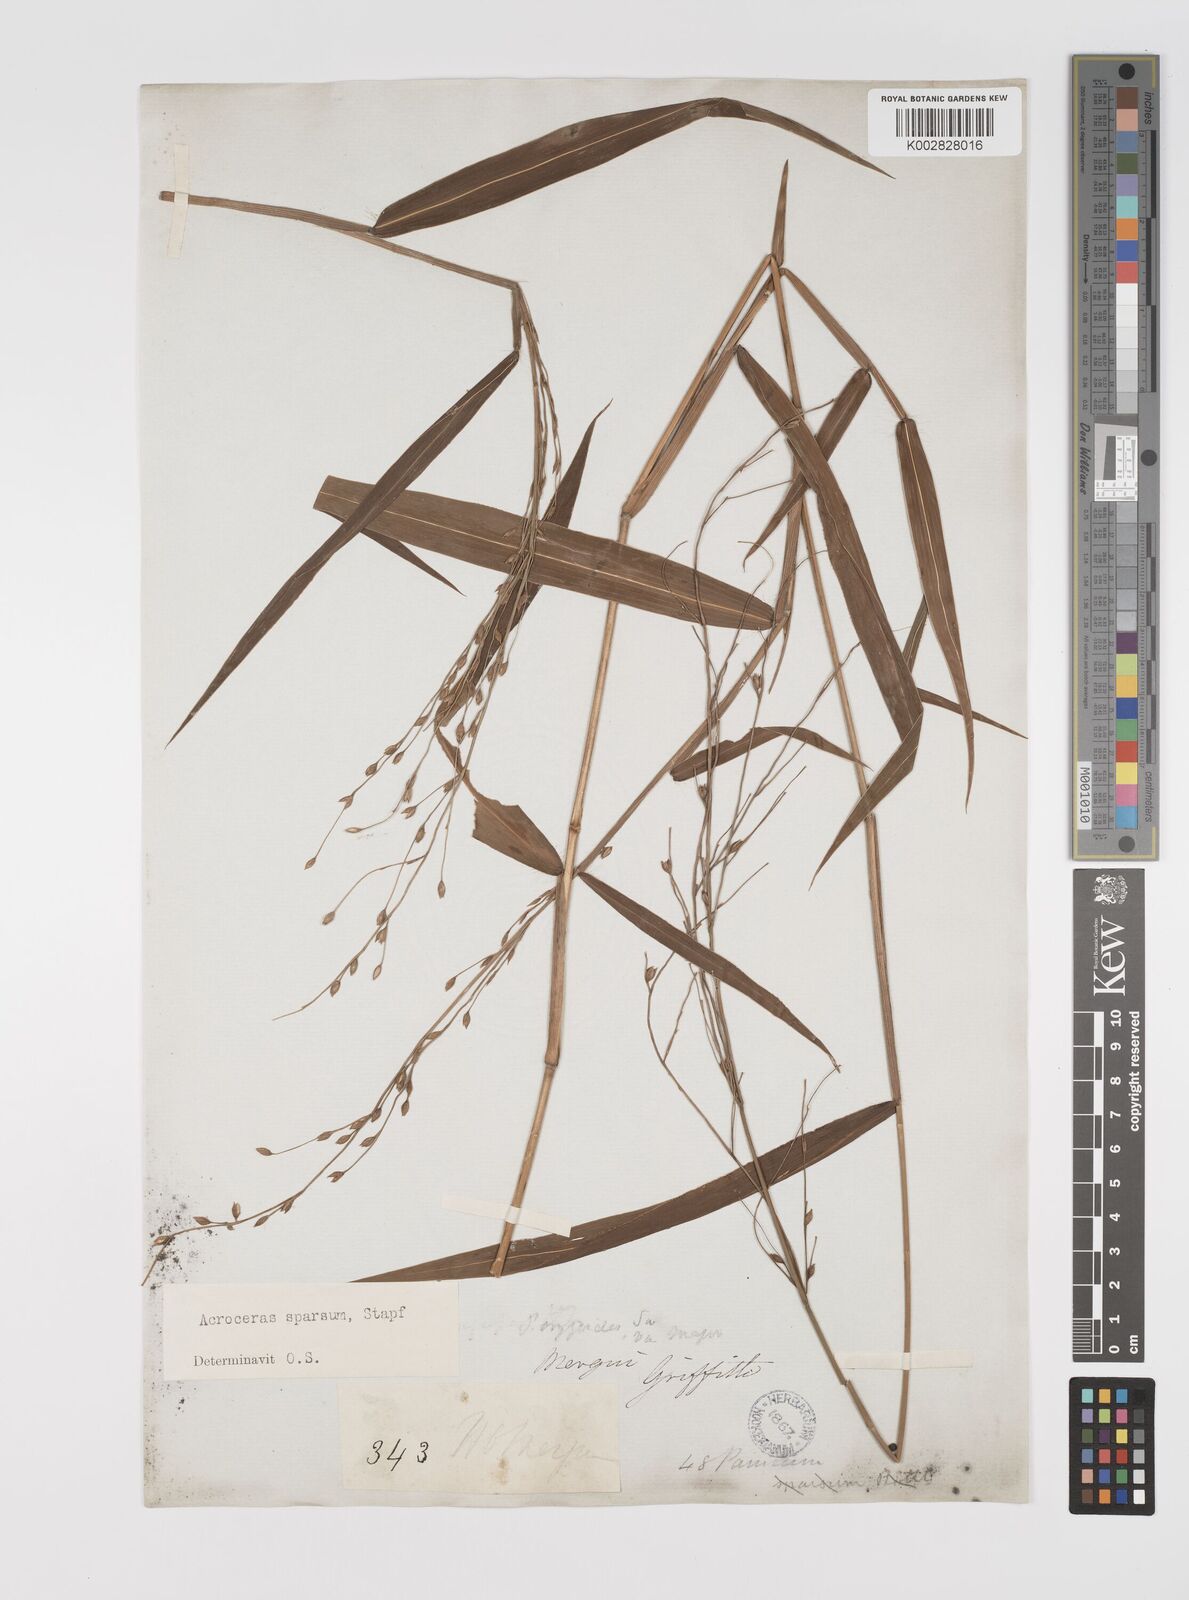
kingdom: Plantae
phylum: Tracheophyta
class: Liliopsida
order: Poales
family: Poaceae
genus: Acroceras
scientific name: Acroceras
